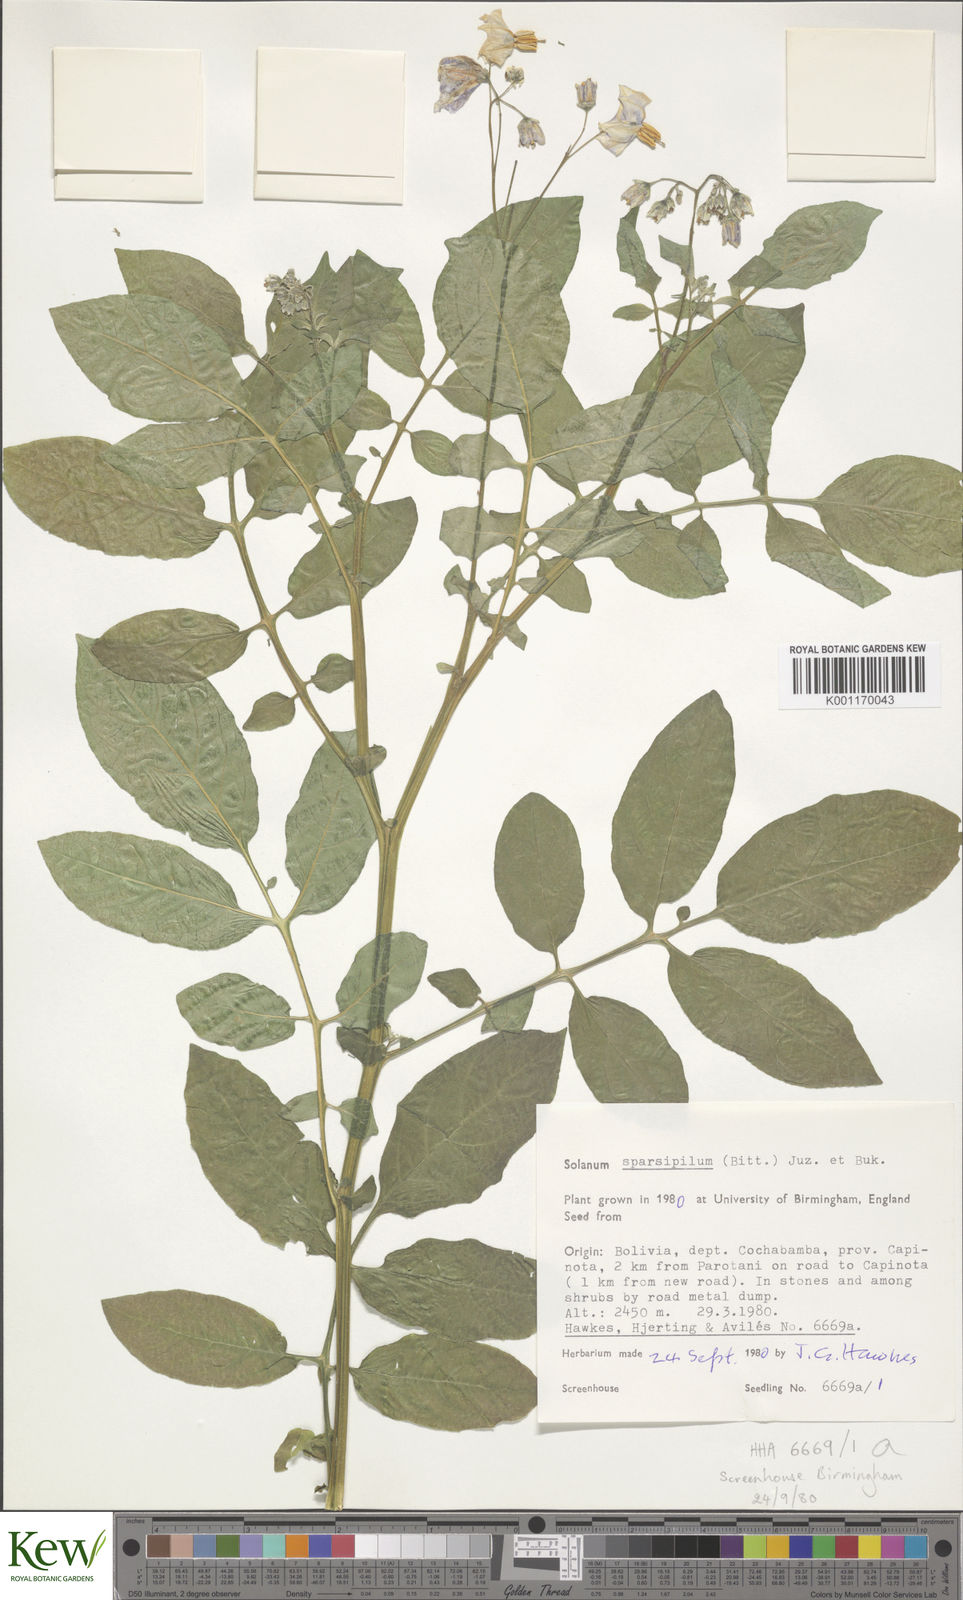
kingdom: Plantae
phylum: Tracheophyta
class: Magnoliopsida
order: Solanales
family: Solanaceae
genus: Solanum
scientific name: Solanum brevicaule
